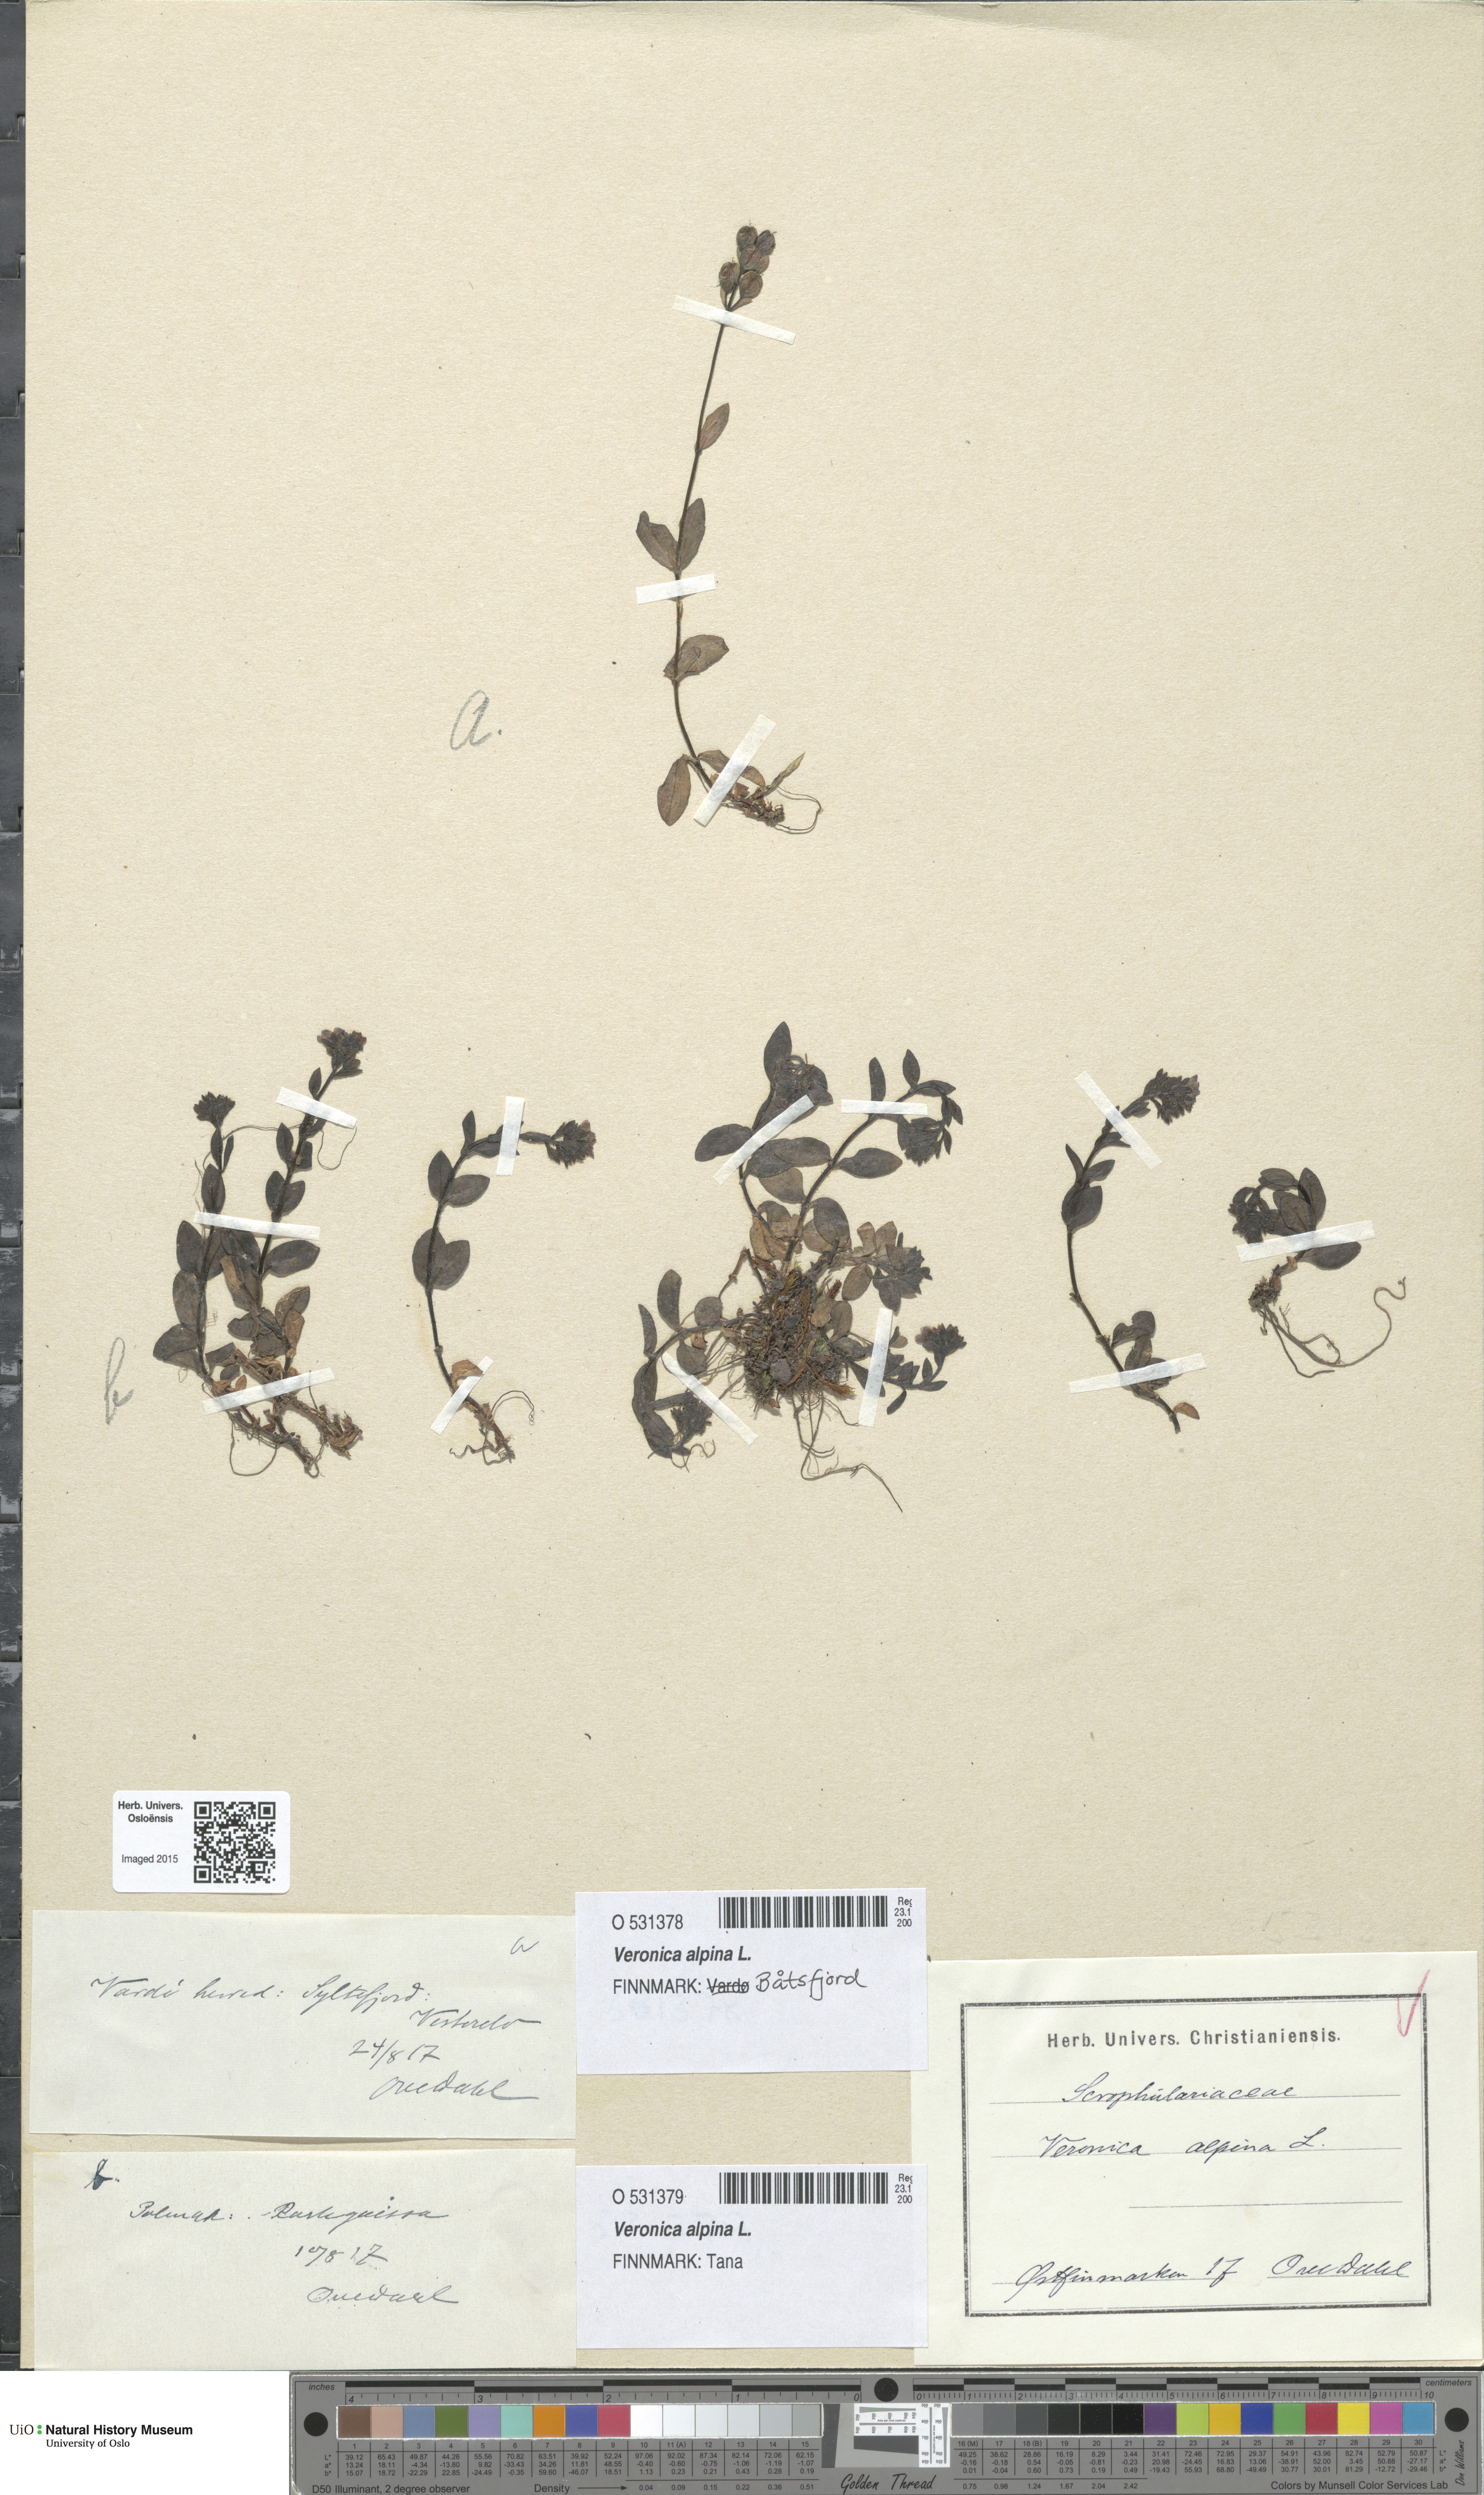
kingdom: Plantae
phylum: Tracheophyta
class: Magnoliopsida
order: Lamiales
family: Plantaginaceae
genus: Veronica
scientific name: Veronica alpina
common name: Alpine speedwell
